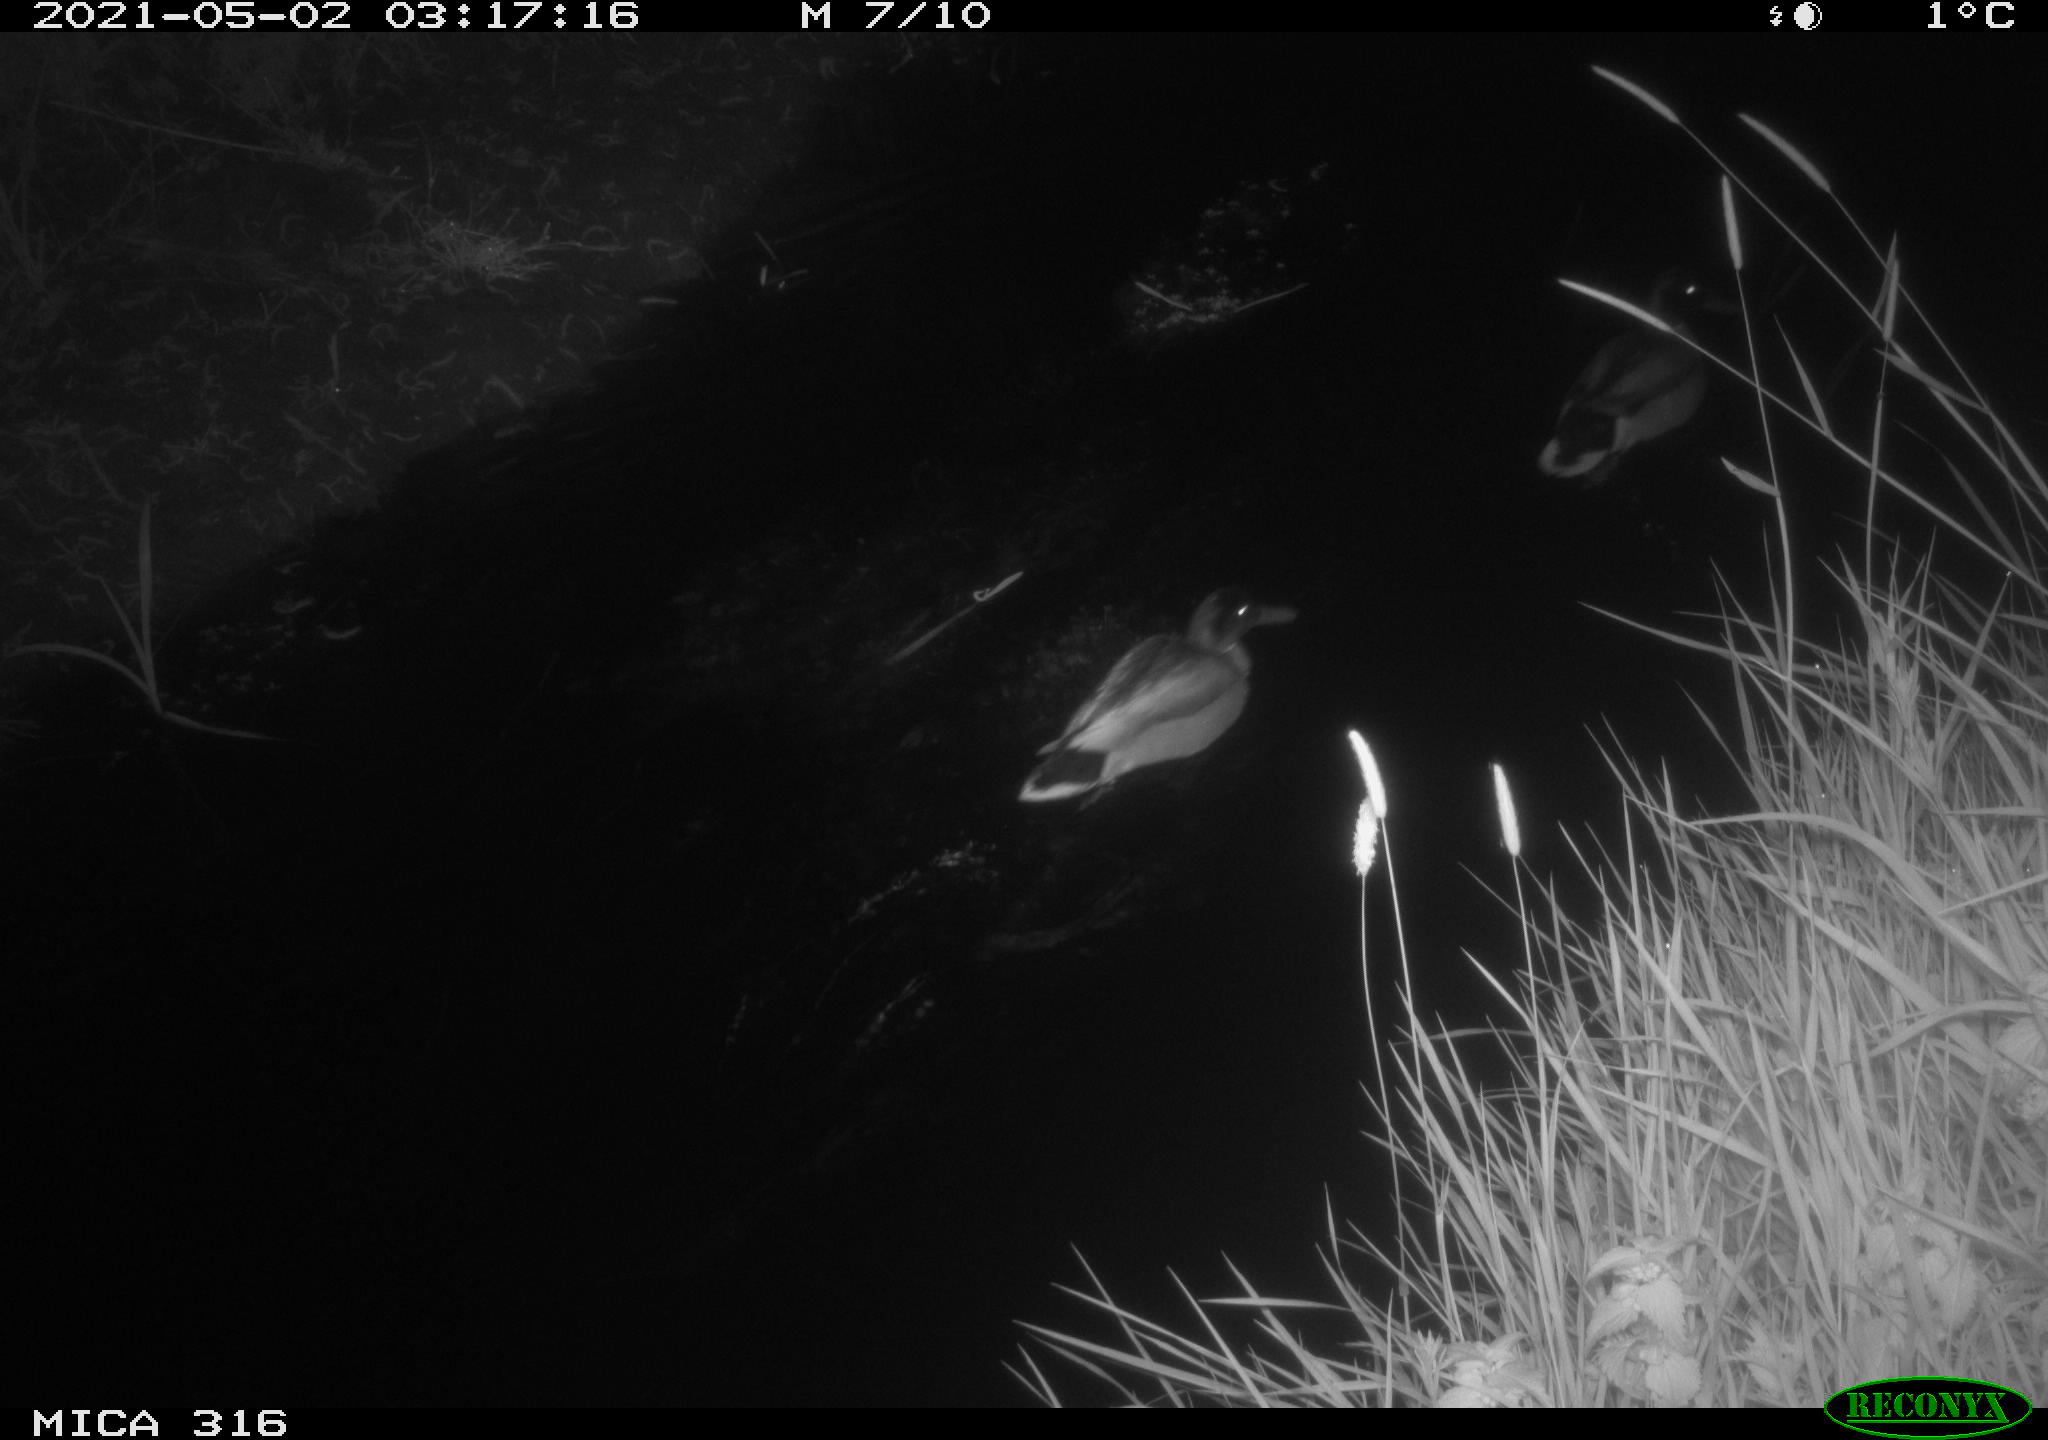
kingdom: Animalia
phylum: Chordata
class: Aves
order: Anseriformes
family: Anatidae
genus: Anas
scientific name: Anas platyrhynchos
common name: Mallard
